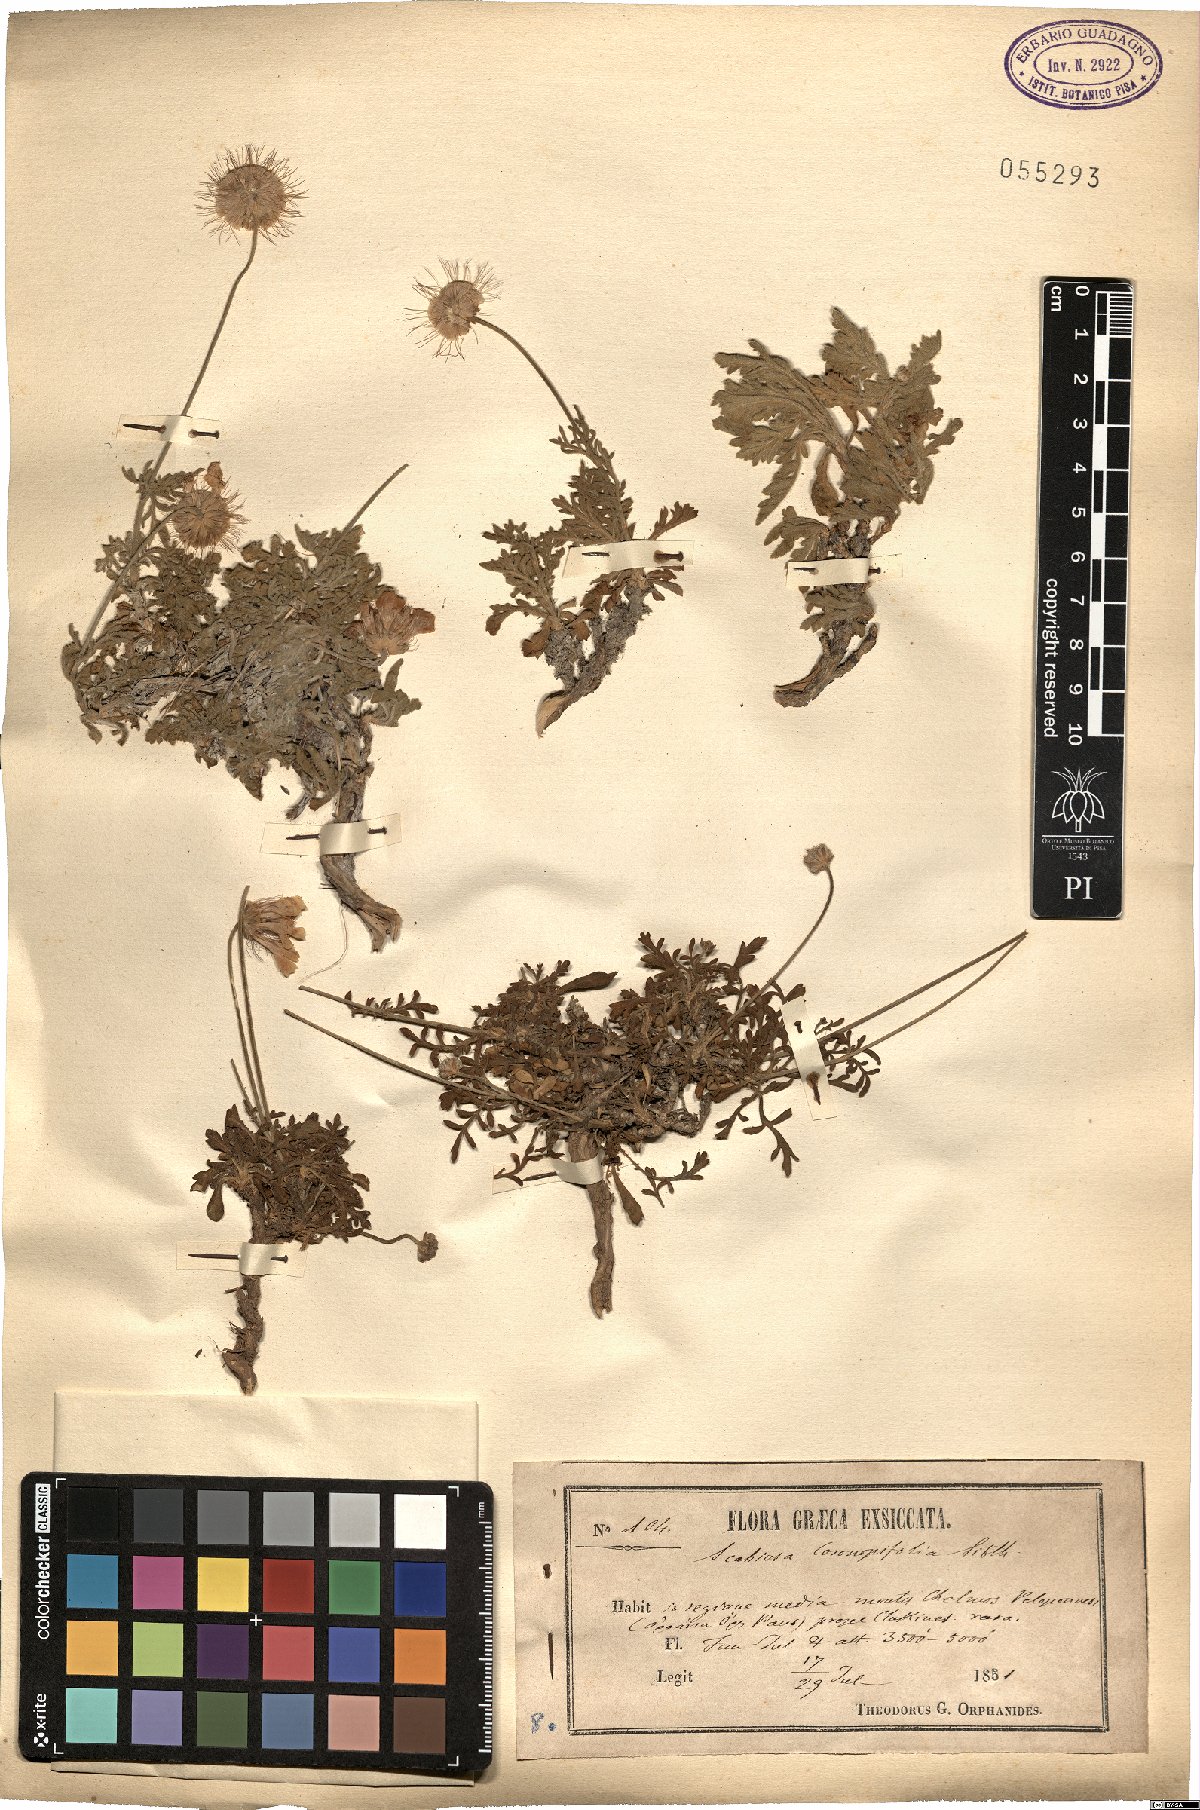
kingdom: Plantae
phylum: Tracheophyta
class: Magnoliopsida
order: Dipsacales
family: Caprifoliaceae
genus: Lomelosia
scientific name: Lomelosia crenata
